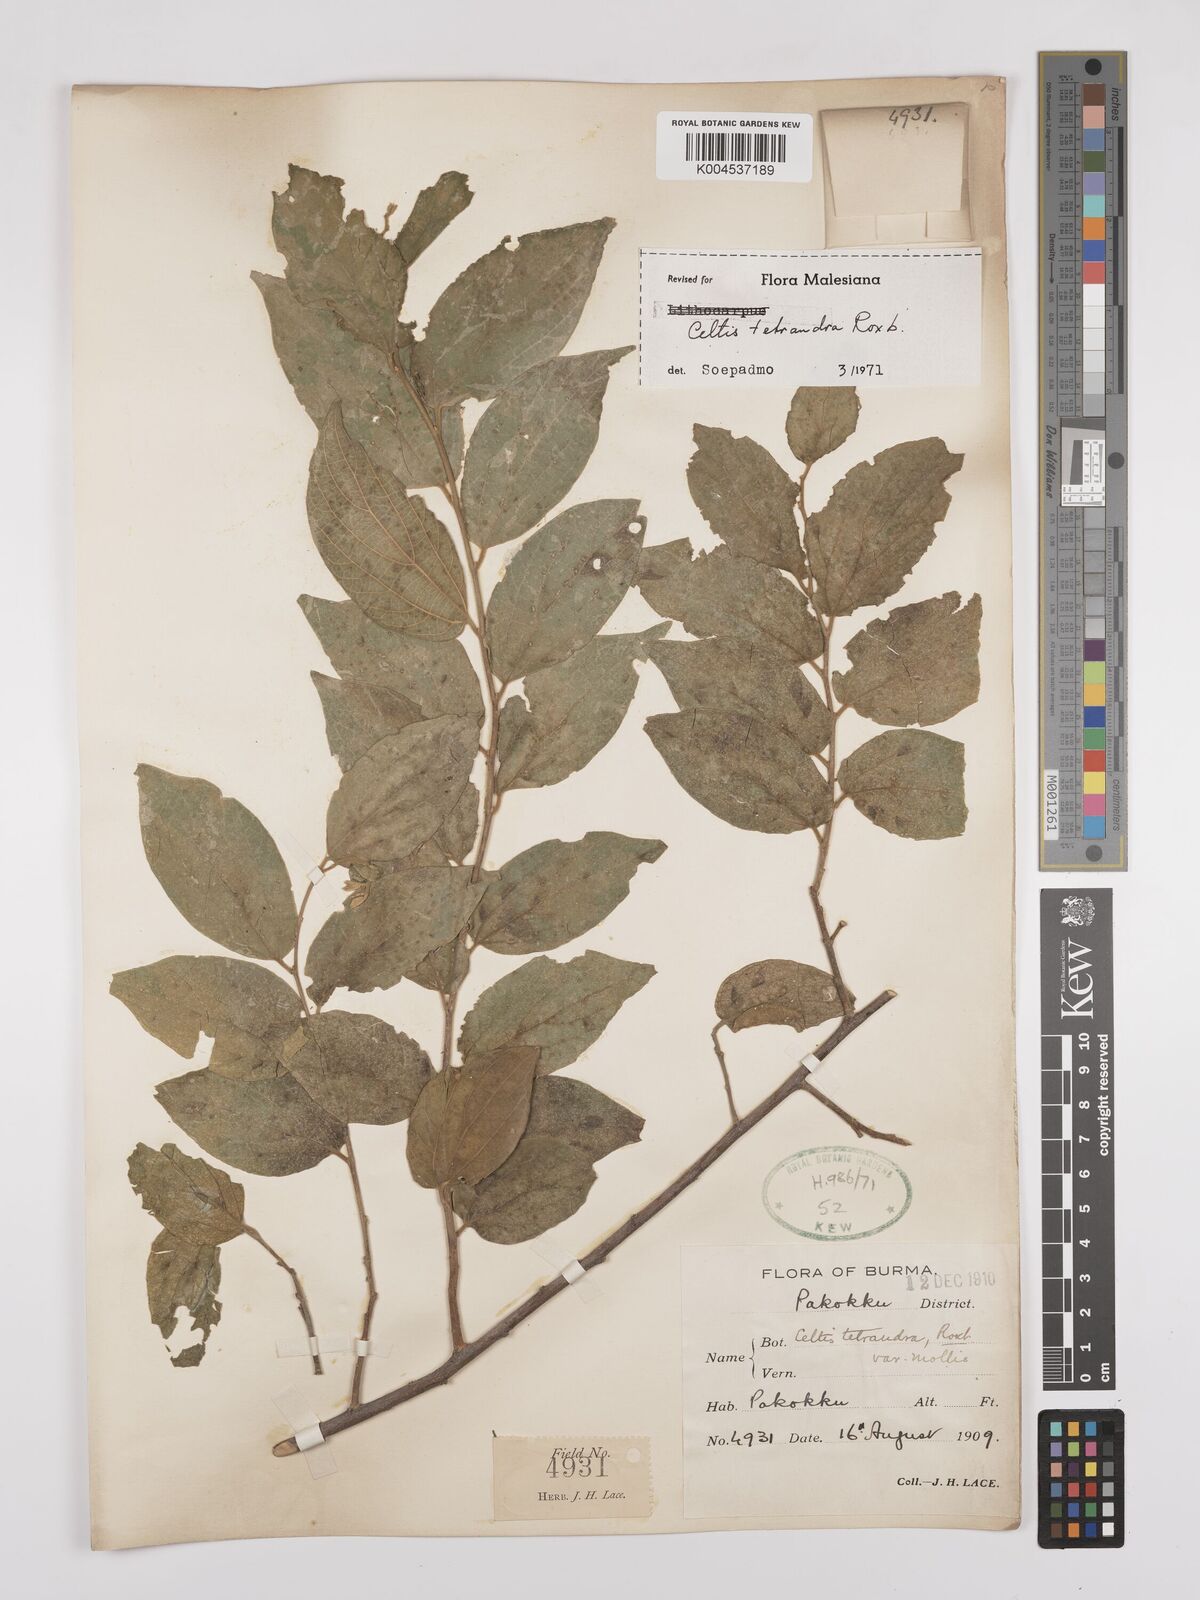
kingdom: Plantae
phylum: Tracheophyta
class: Magnoliopsida
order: Rosales
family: Cannabaceae
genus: Celtis
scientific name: Celtis tetrandra
